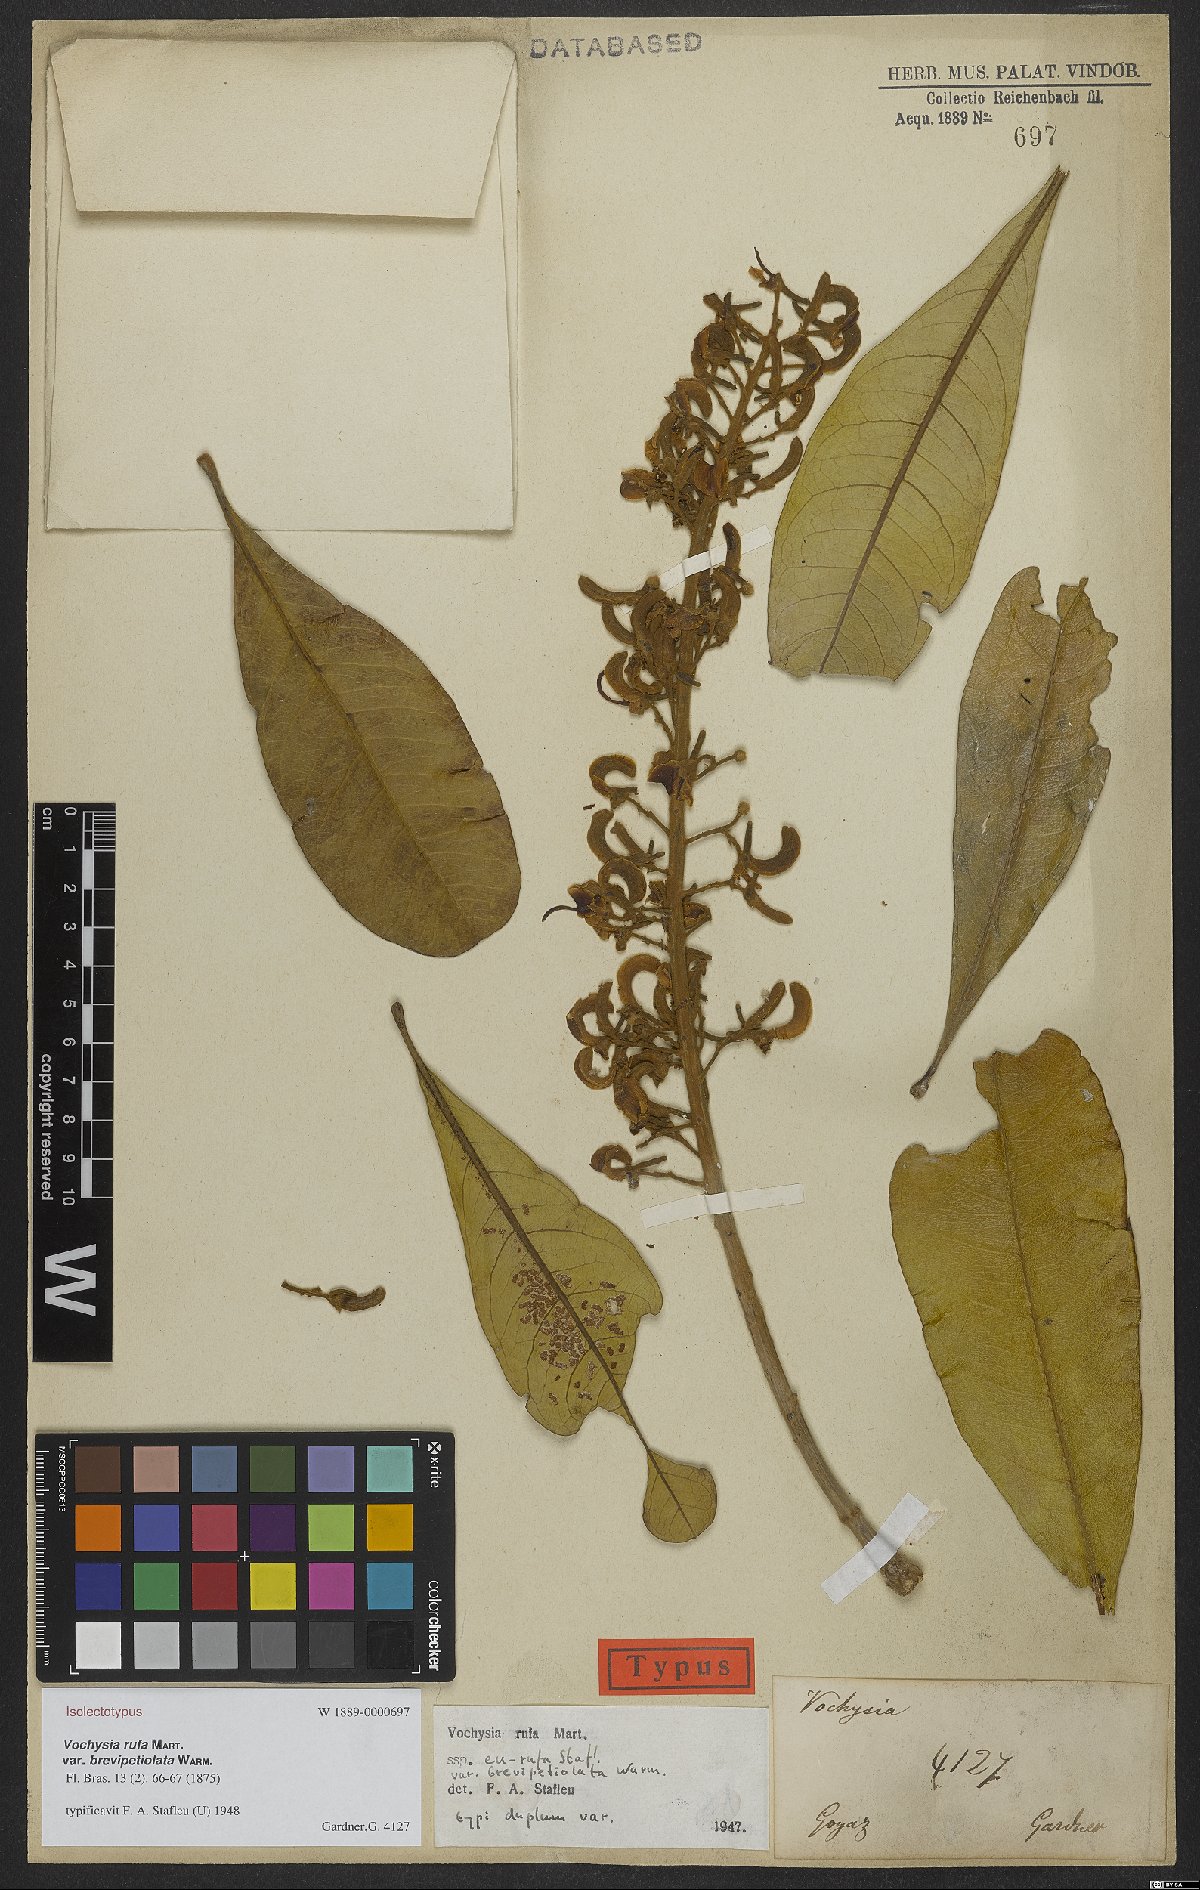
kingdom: Plantae
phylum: Tracheophyta
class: Magnoliopsida
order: Myrtales
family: Vochysiaceae
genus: Vochysia
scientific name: Vochysia rufa
